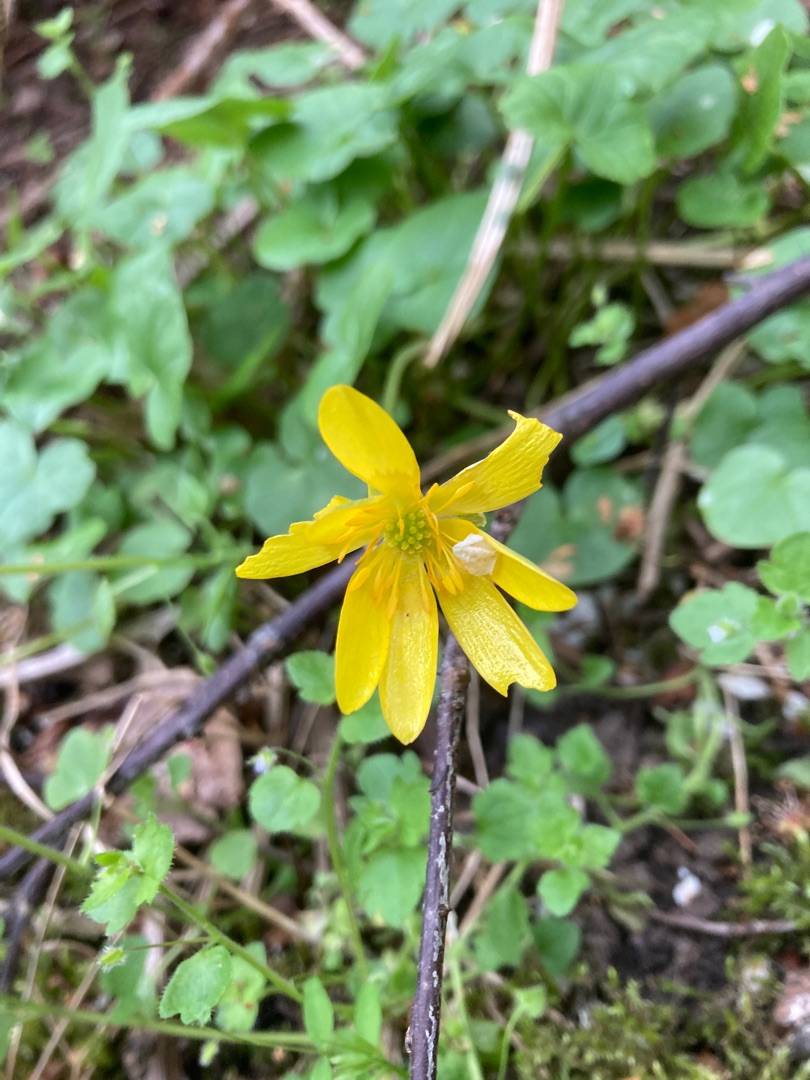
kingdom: Plantae
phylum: Tracheophyta
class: Magnoliopsida
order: Ranunculales
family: Ranunculaceae
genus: Ficaria
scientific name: Ficaria verna
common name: Vorterod
